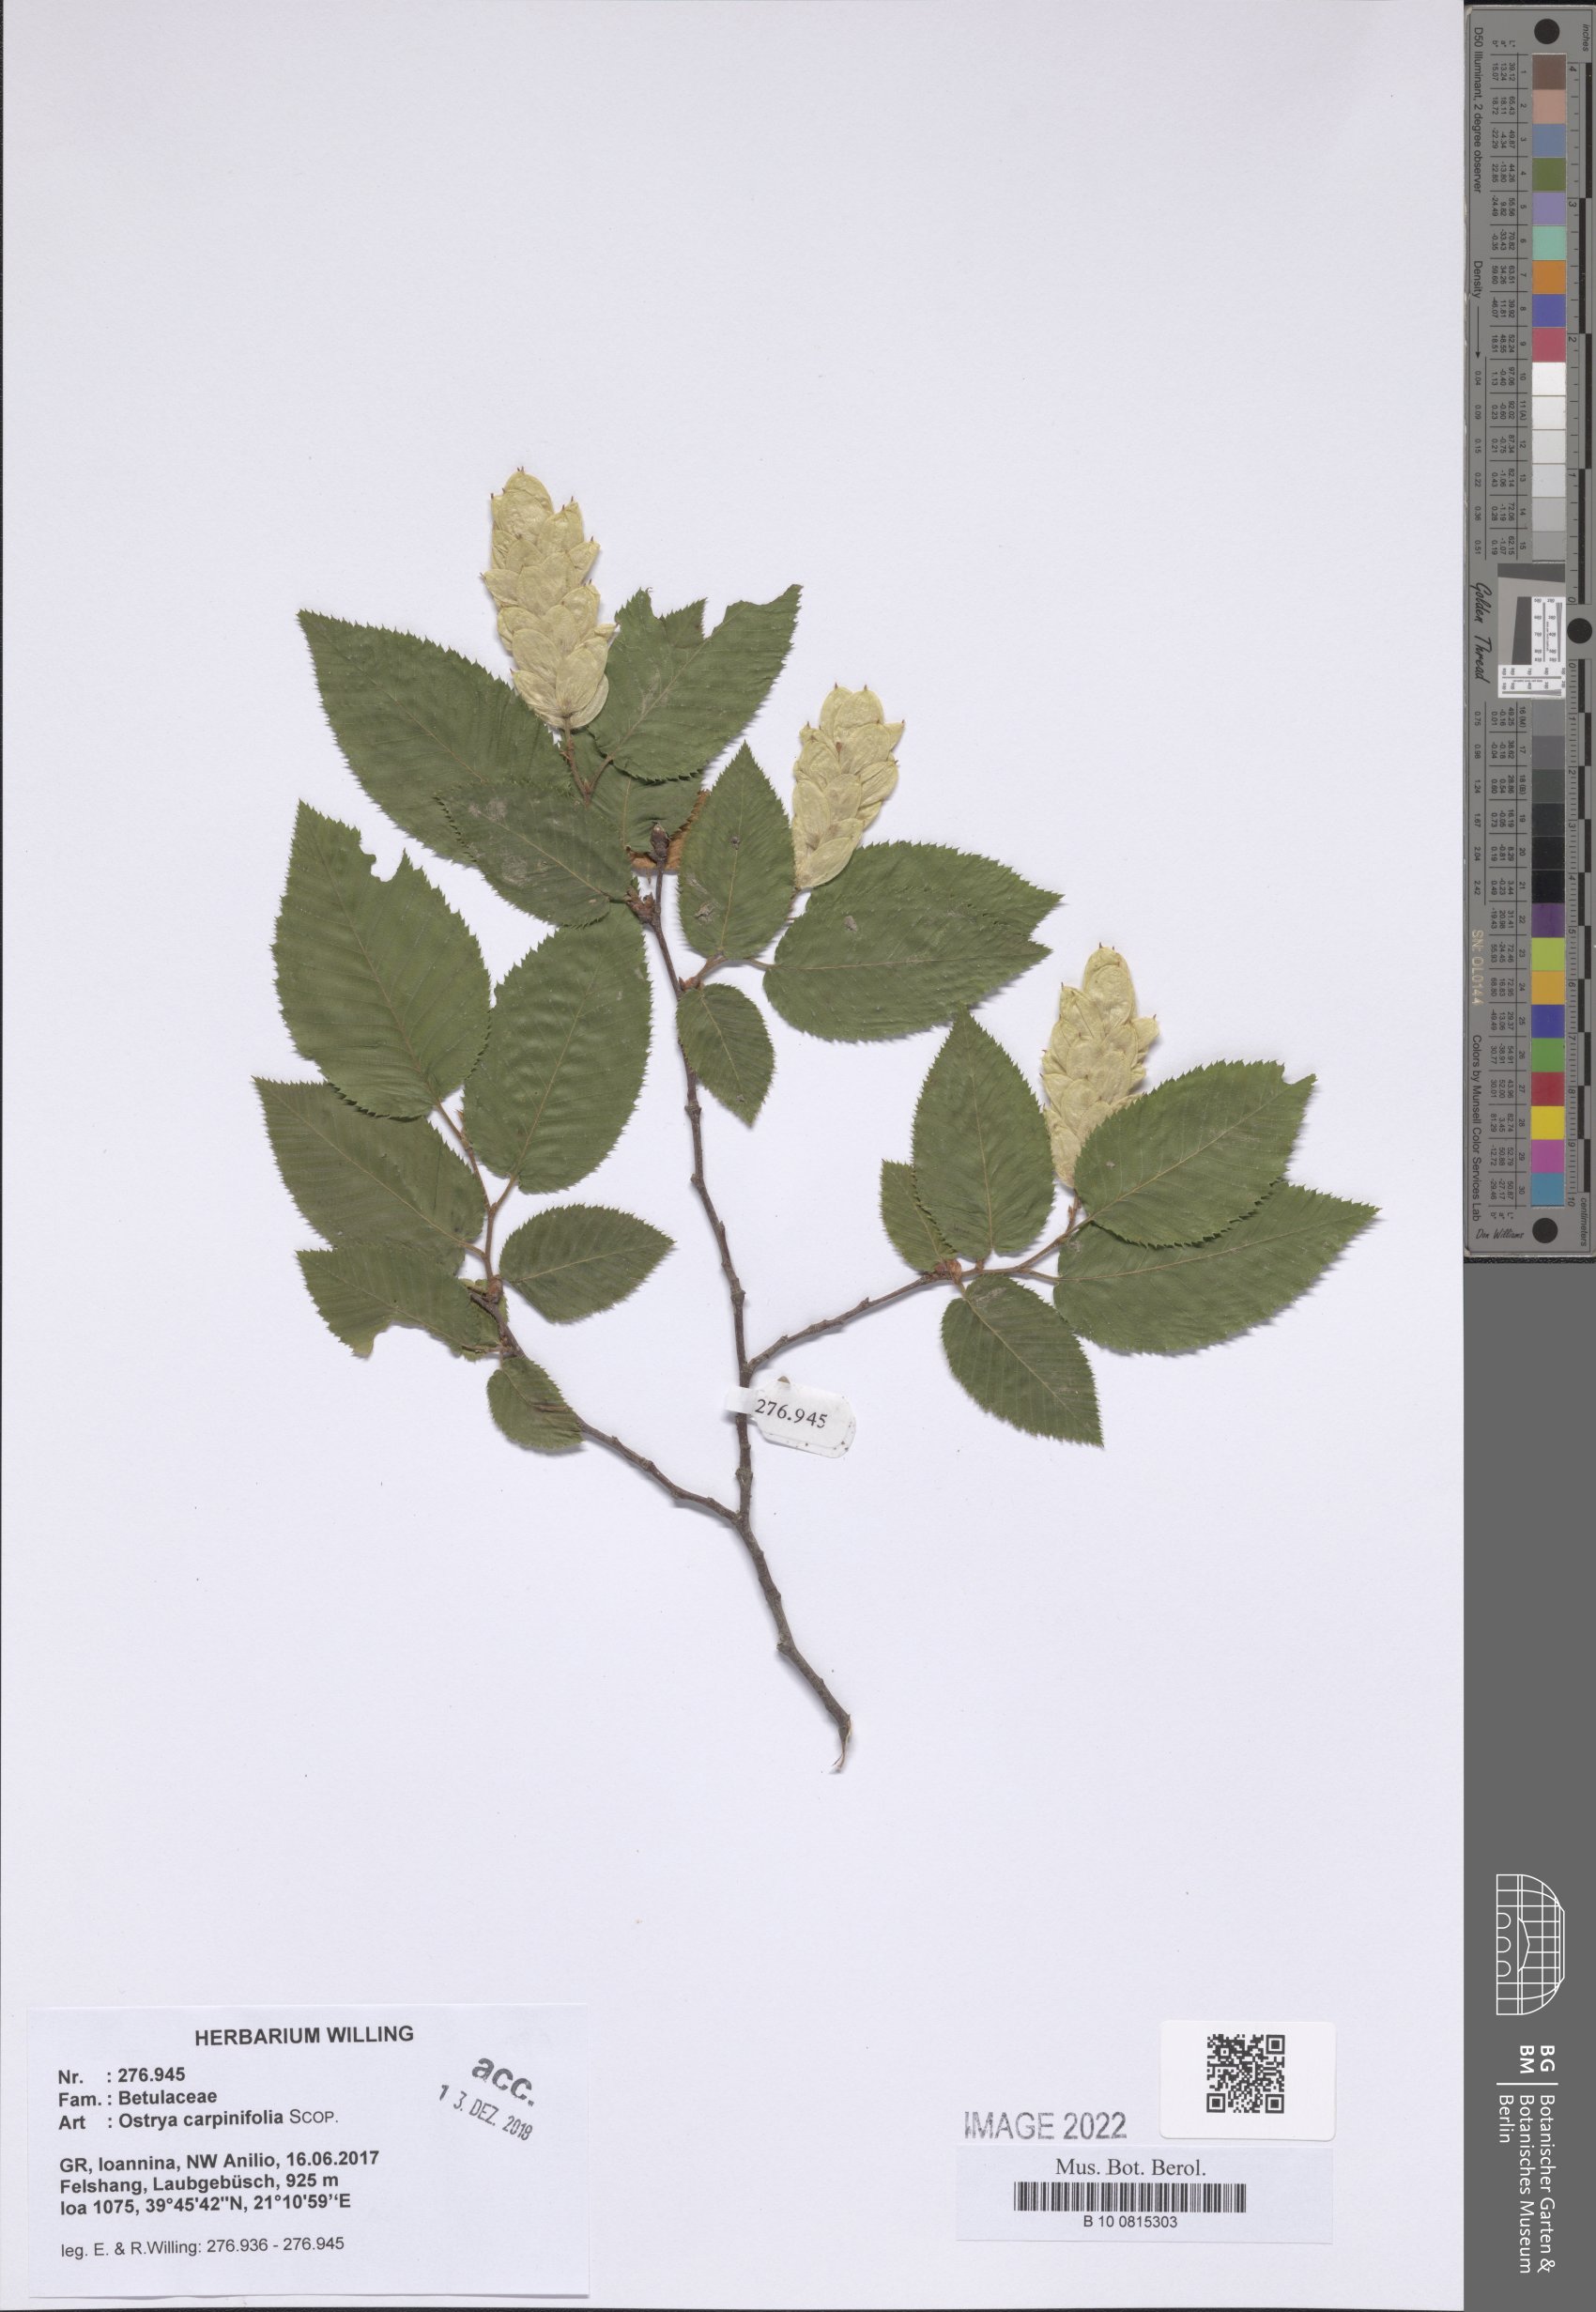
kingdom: Plantae
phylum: Tracheophyta
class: Magnoliopsida
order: Fagales
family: Betulaceae
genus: Ostrya
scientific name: Ostrya carpinifolia
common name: European hop-hornbeam
